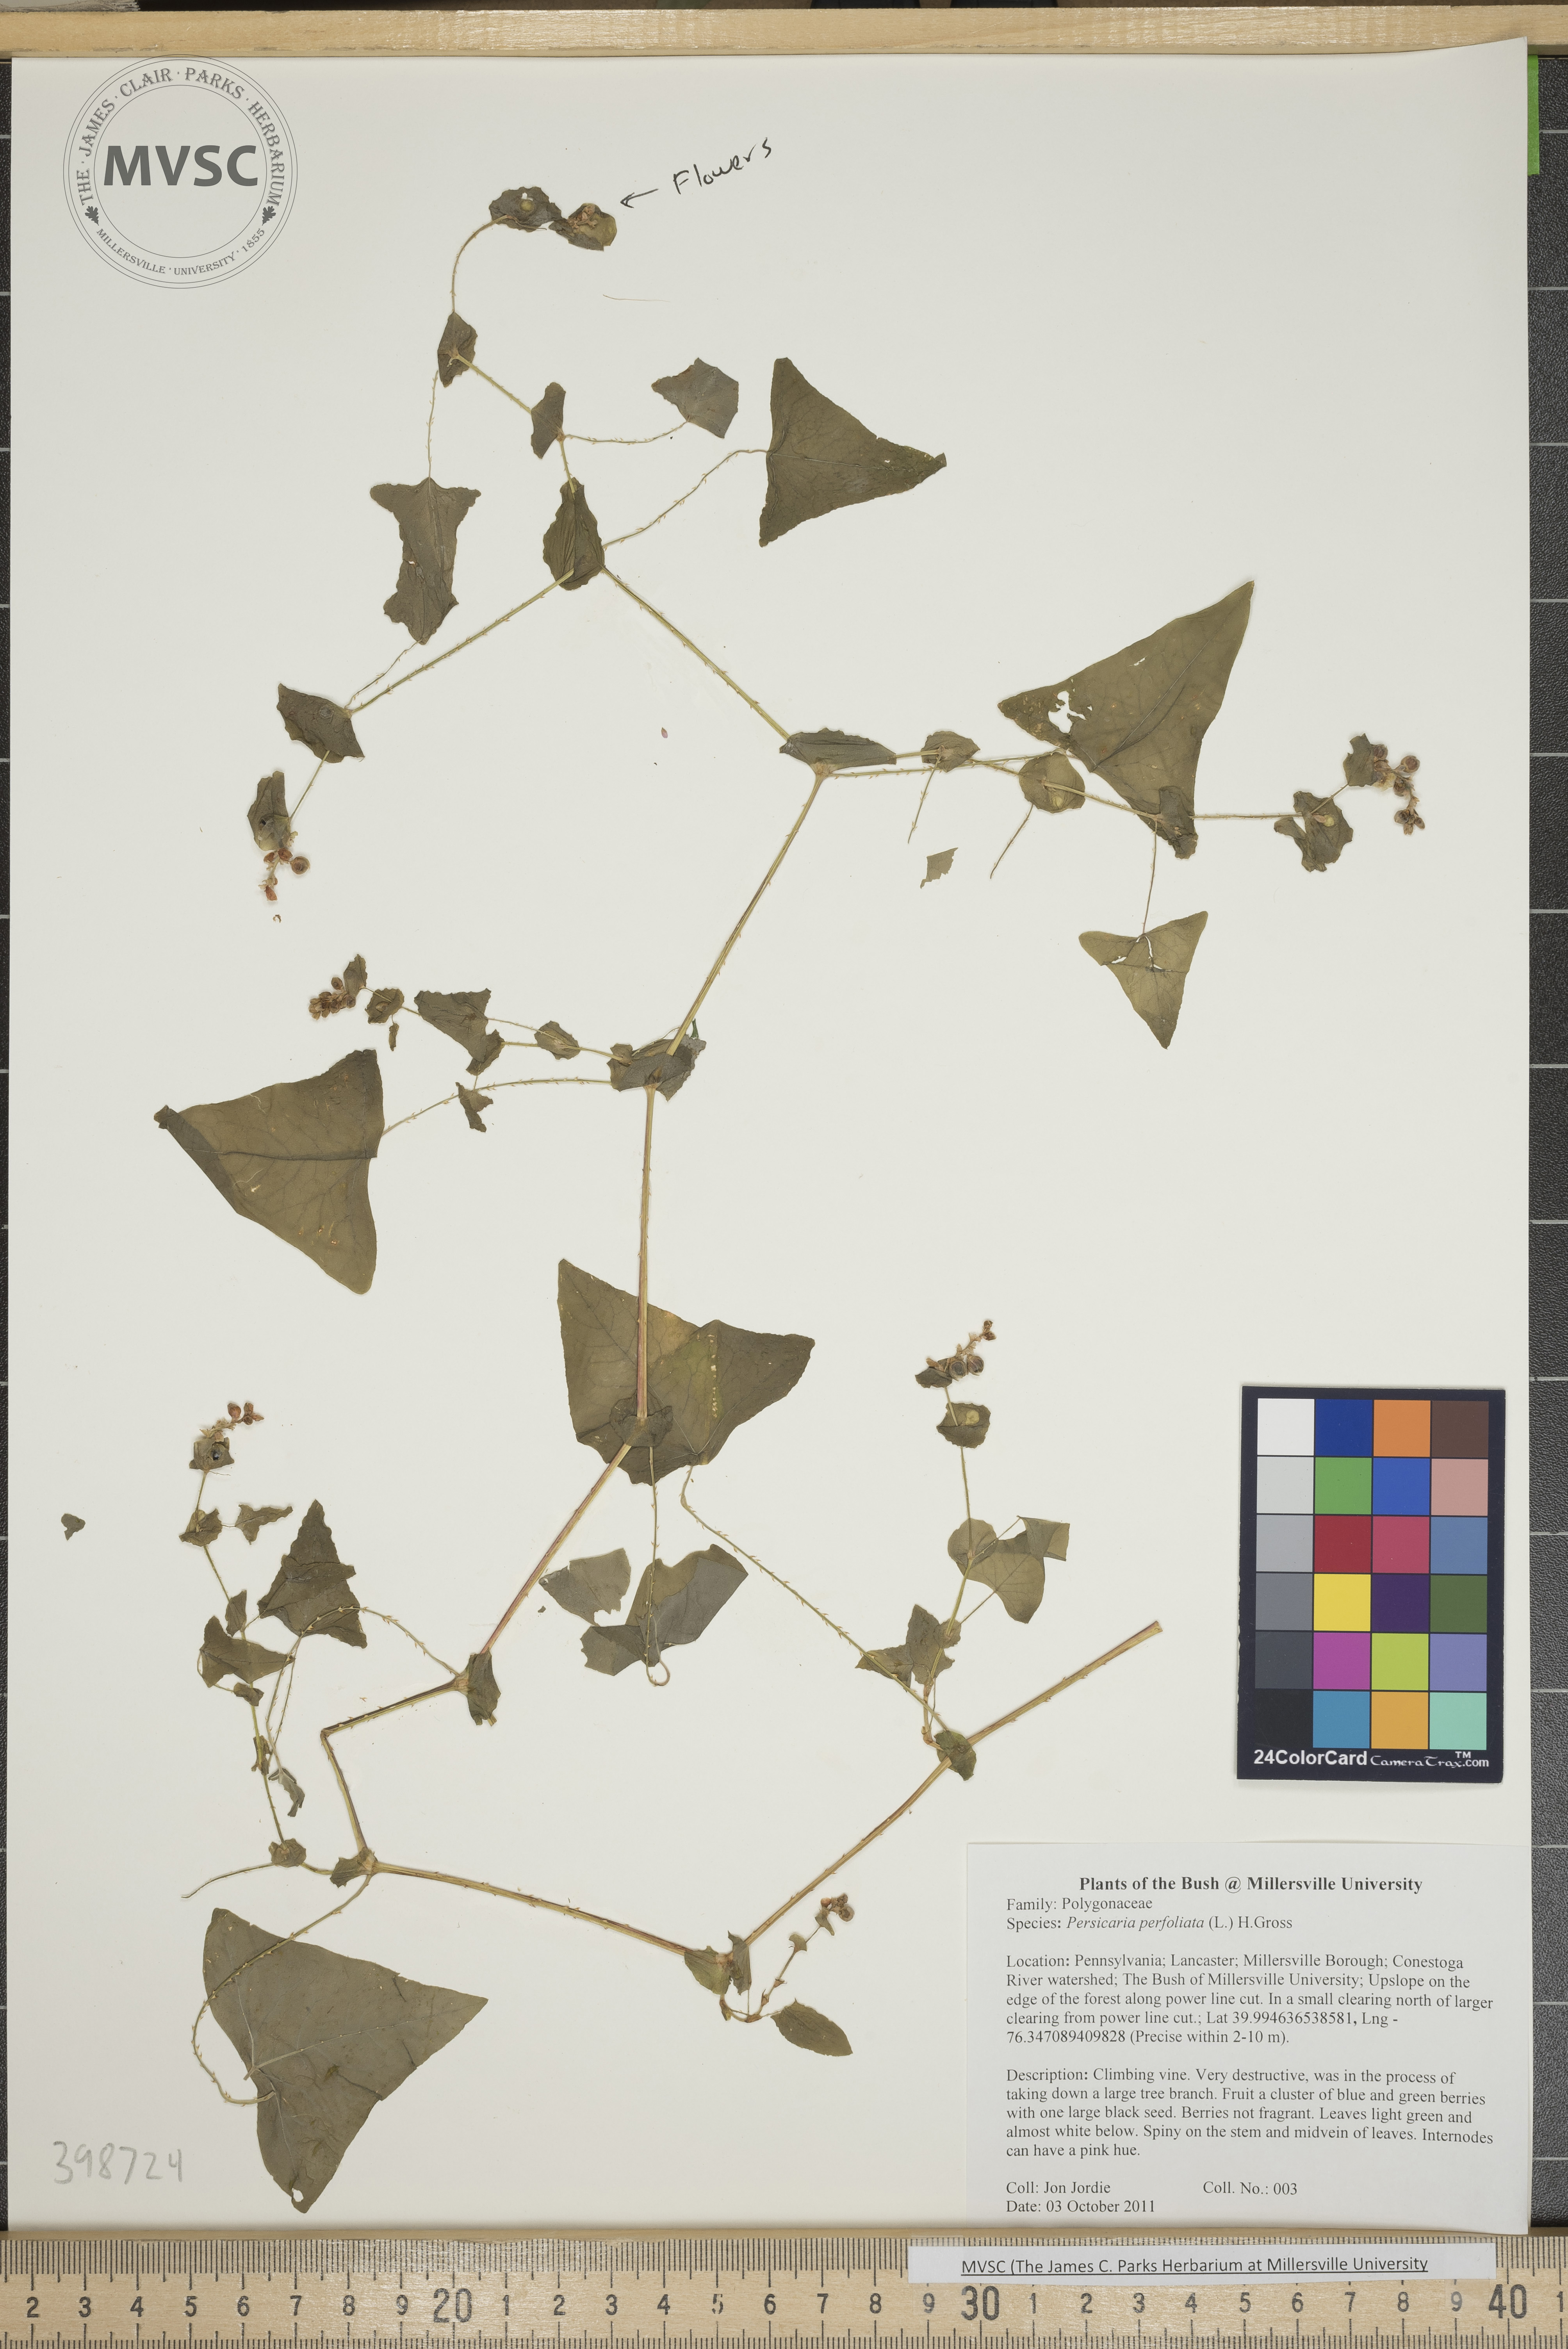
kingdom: Plantae
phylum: Tracheophyta
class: Magnoliopsida
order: Caryophyllales
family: Polygonaceae
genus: Persicaria
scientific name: Persicaria perfoliata
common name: Mile-a-minute weed
